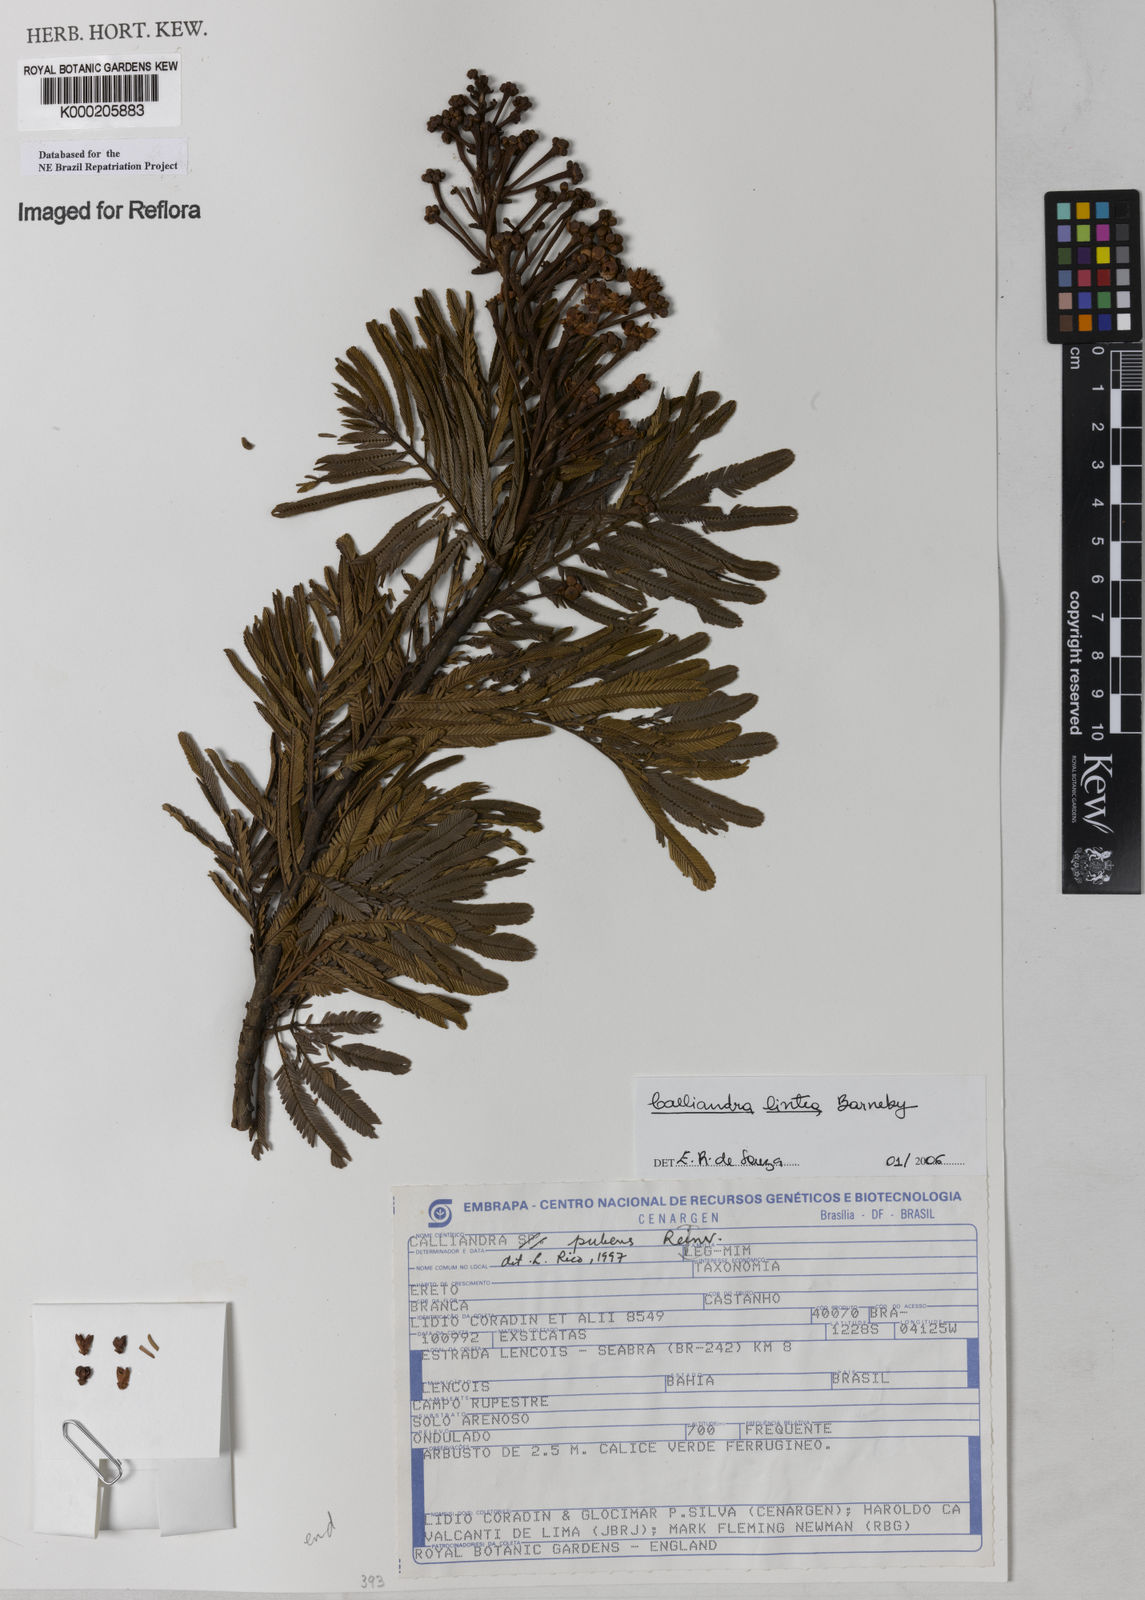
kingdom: Plantae
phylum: Tracheophyta
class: Magnoliopsida
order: Fabales
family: Fabaceae
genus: Calliandra
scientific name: Calliandra bahiana
